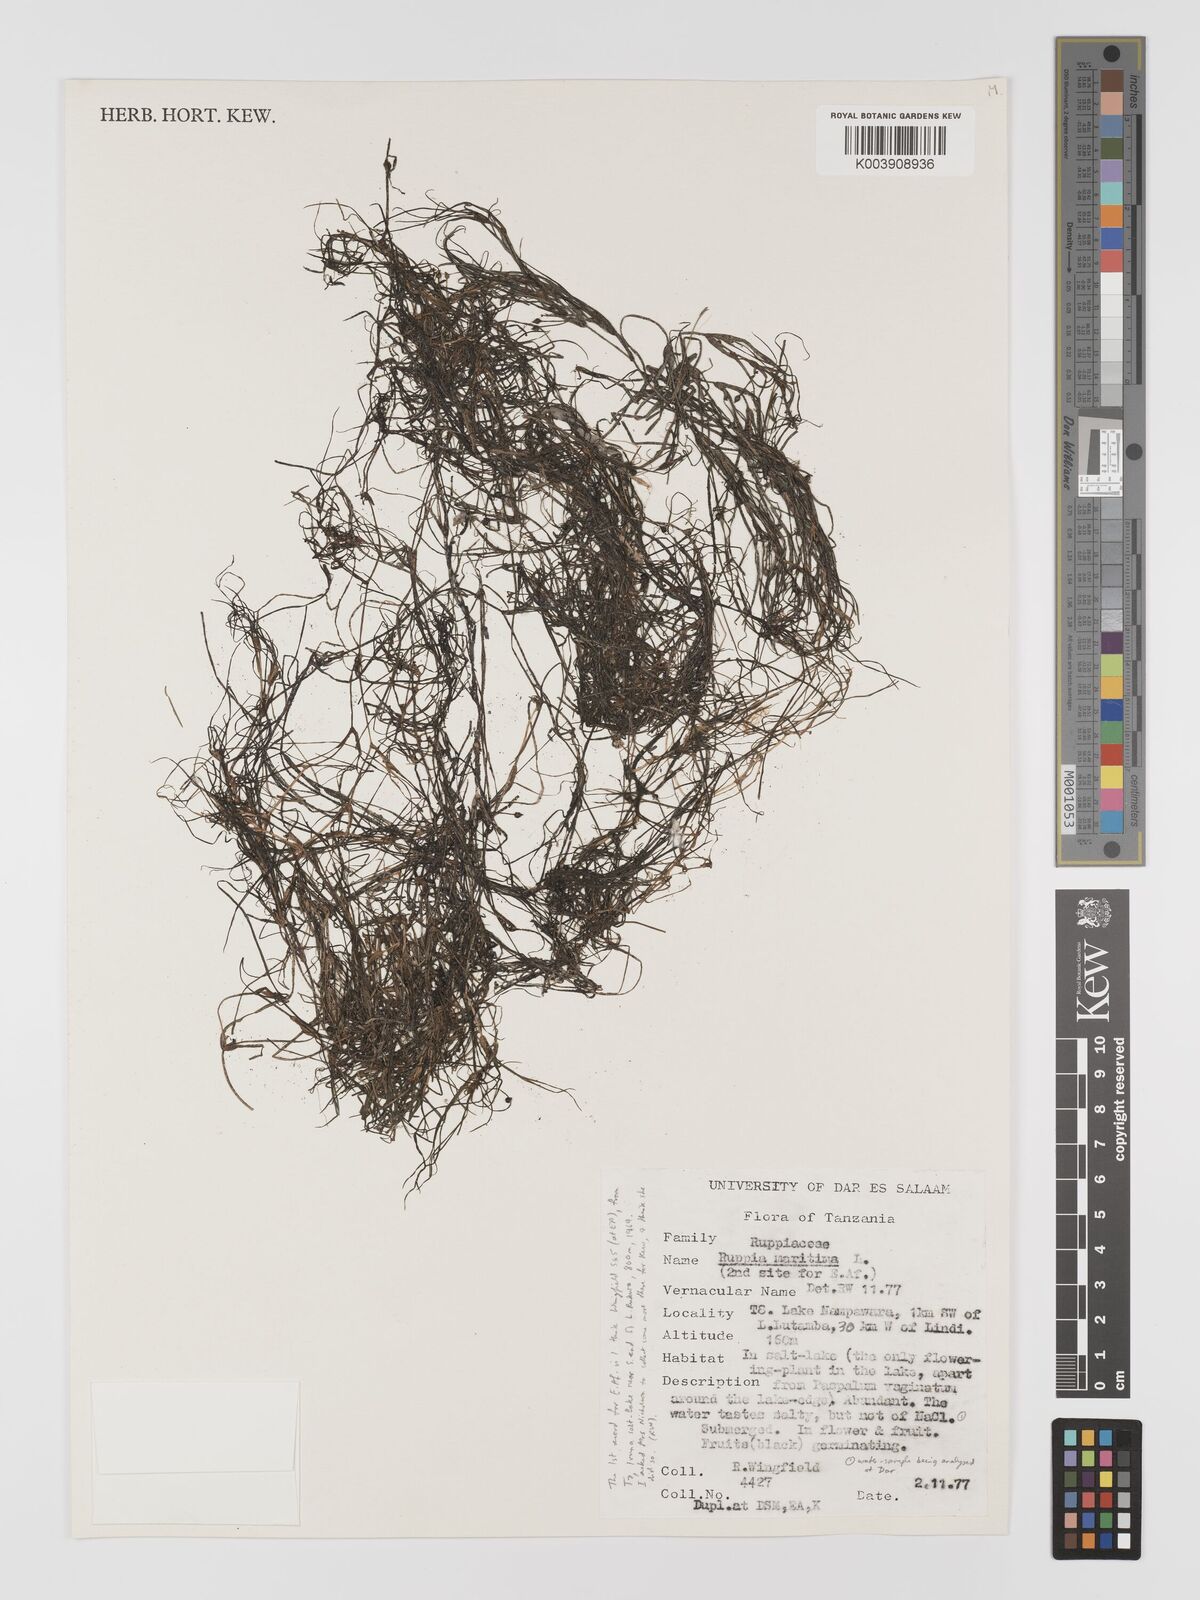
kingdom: Plantae
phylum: Tracheophyta
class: Liliopsida
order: Alismatales
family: Ruppiaceae
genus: Ruppia
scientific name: Ruppia maritima
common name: Beaked tasselweed
